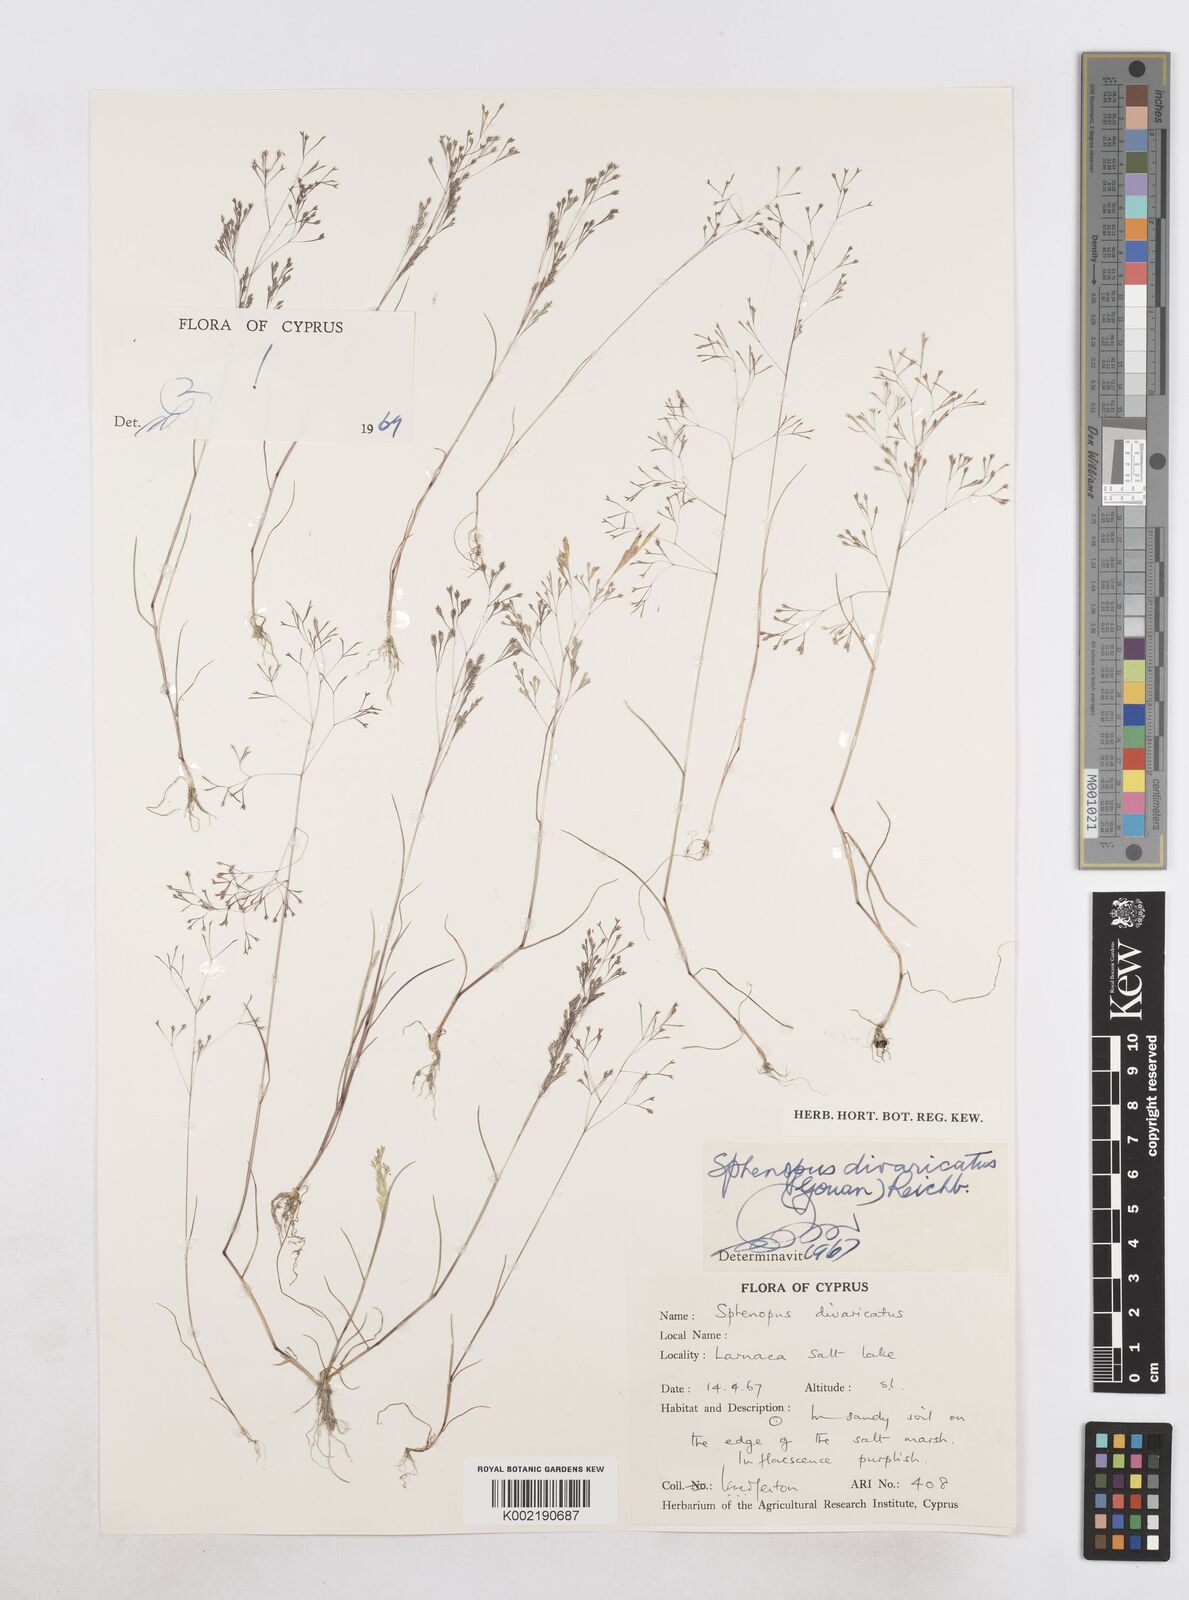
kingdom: Plantae
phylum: Tracheophyta
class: Liliopsida
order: Poales
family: Poaceae
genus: Sphenopus
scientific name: Sphenopus divaricatus
